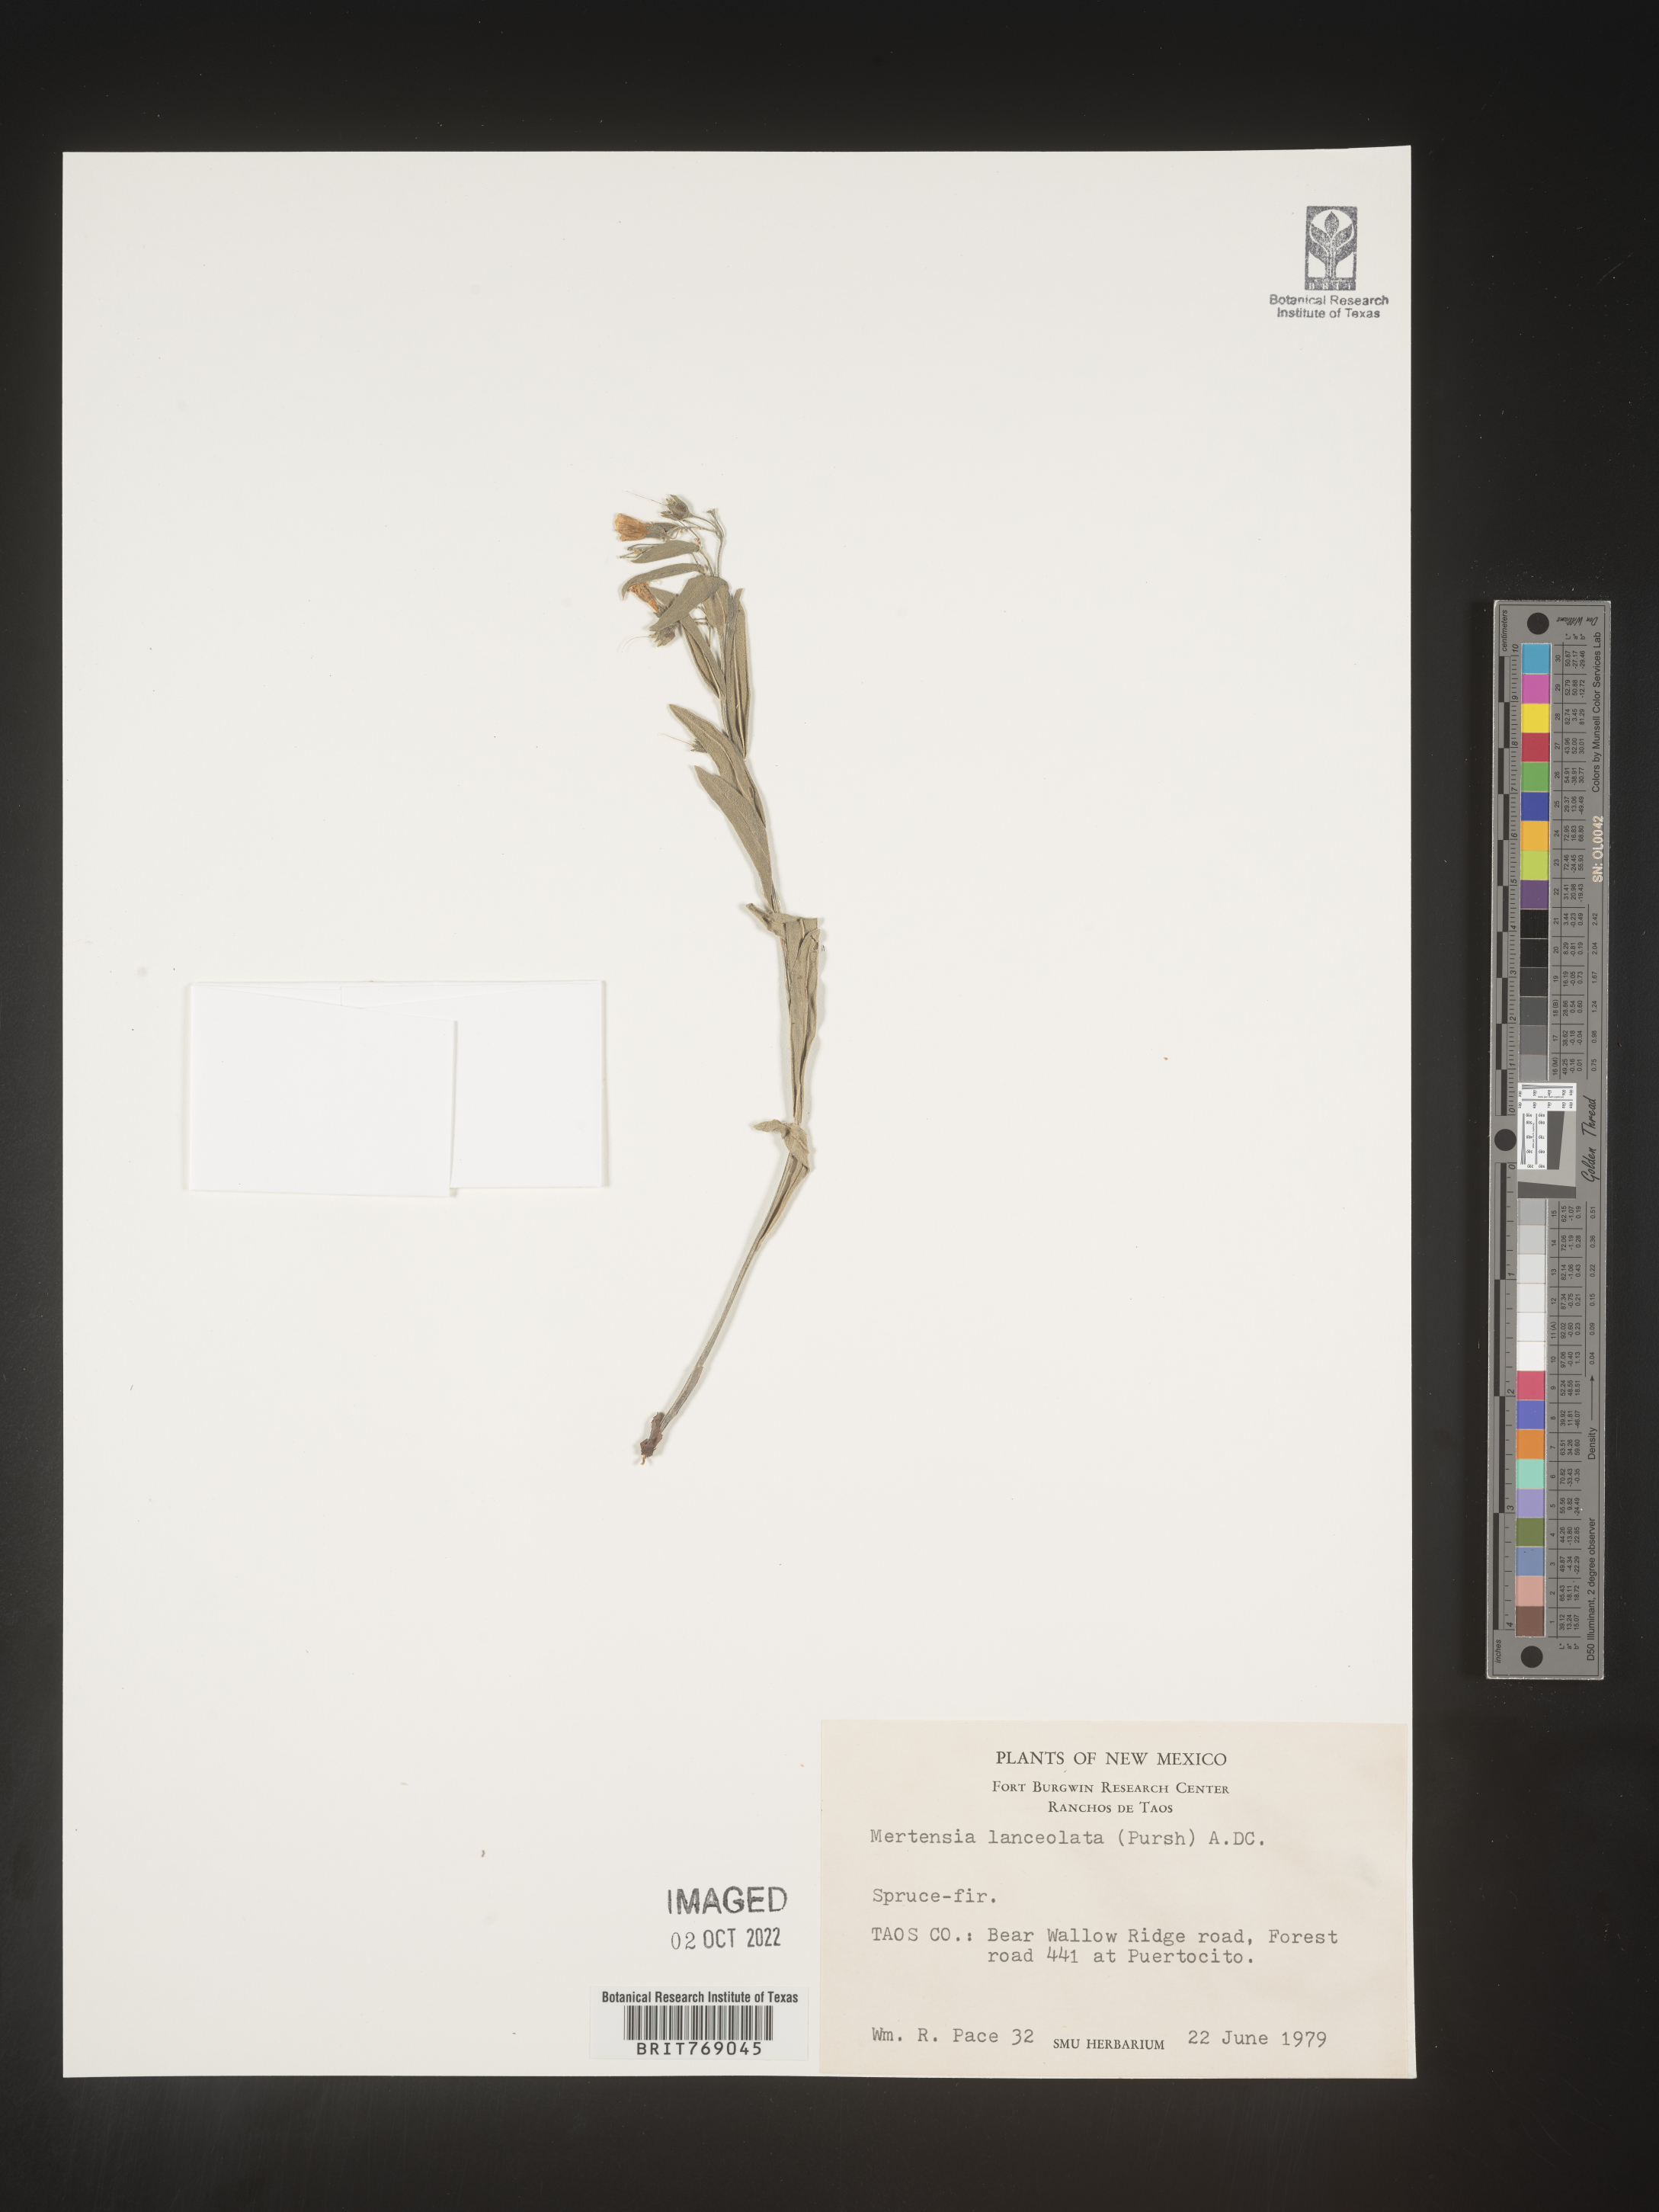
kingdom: Plantae
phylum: Tracheophyta
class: Magnoliopsida
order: Boraginales
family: Boraginaceae
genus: Mertensia
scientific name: Mertensia
